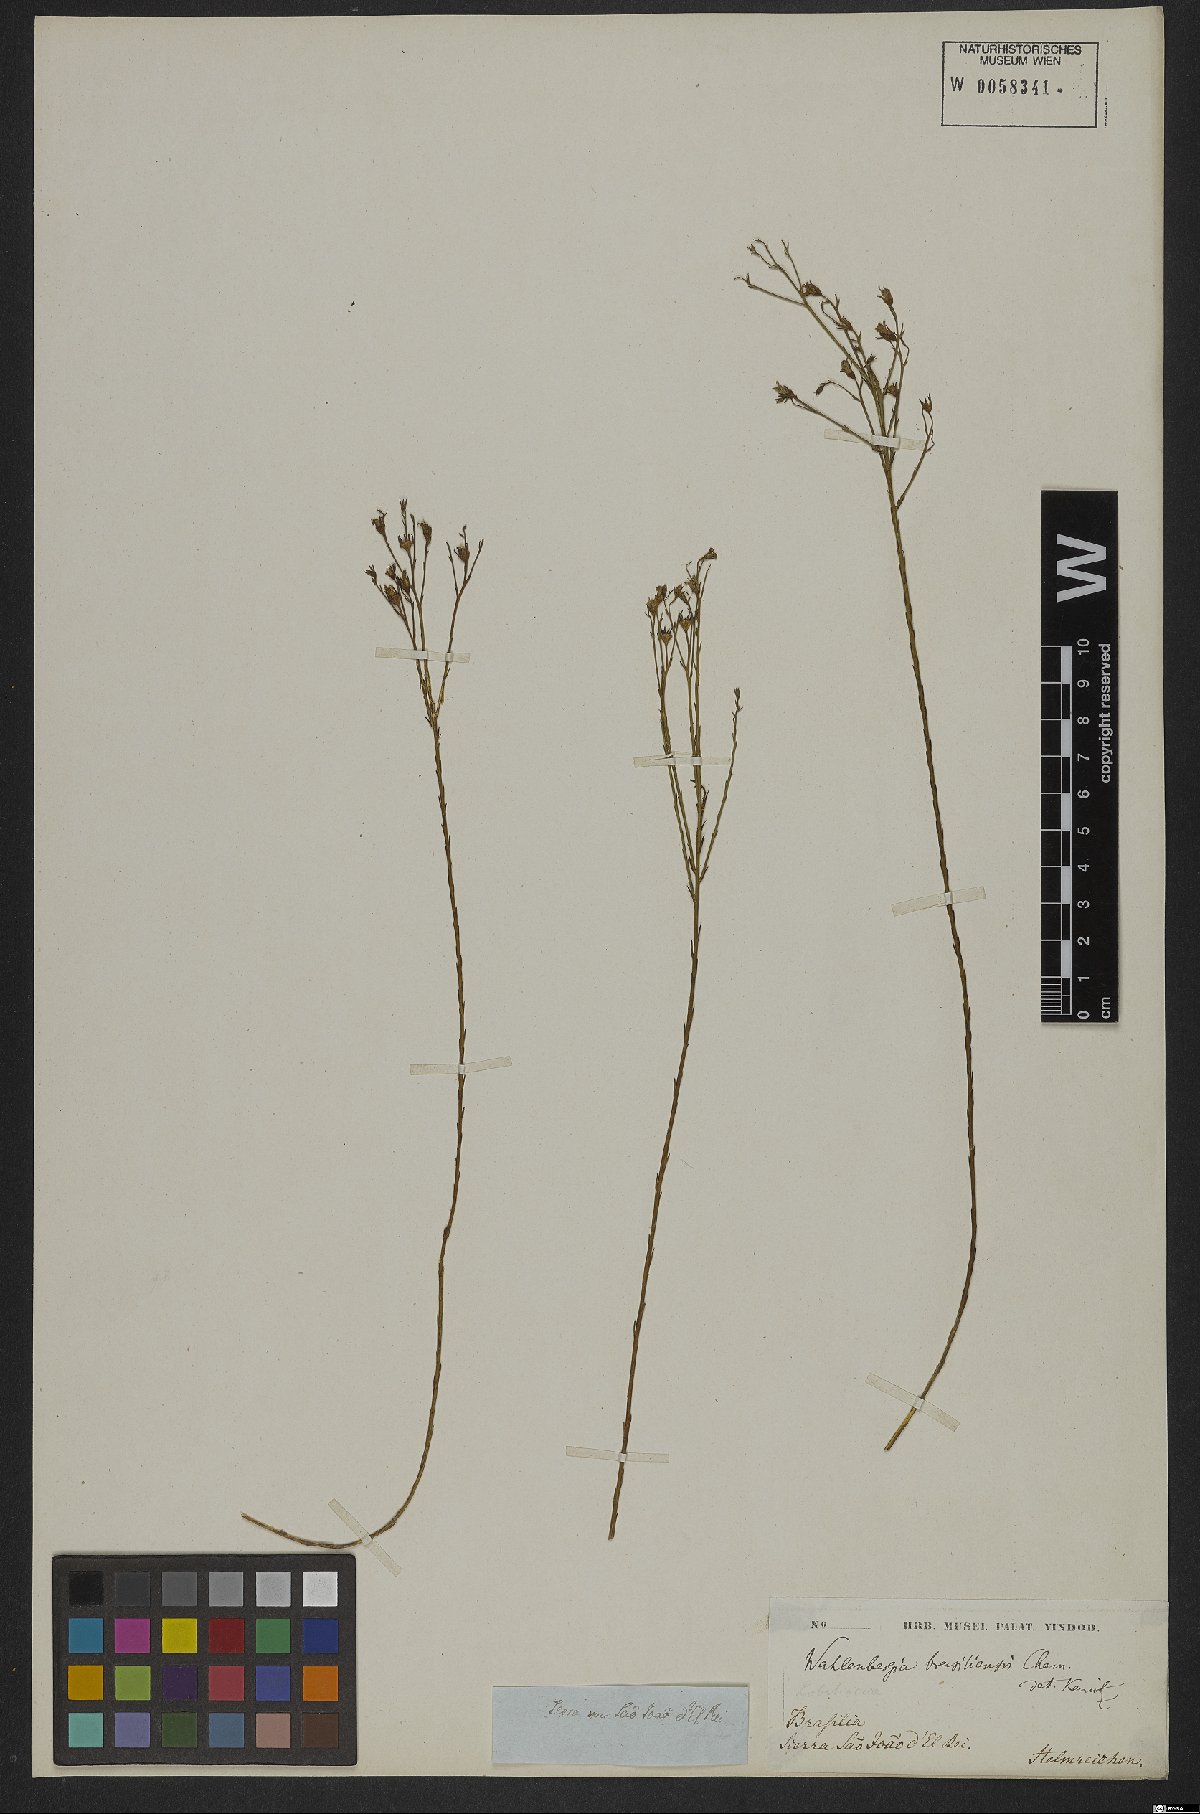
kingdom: Plantae
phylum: Tracheophyta
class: Magnoliopsida
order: Asterales
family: Campanulaceae
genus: Wahlenbergia
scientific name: Wahlenbergia brasiliensis
